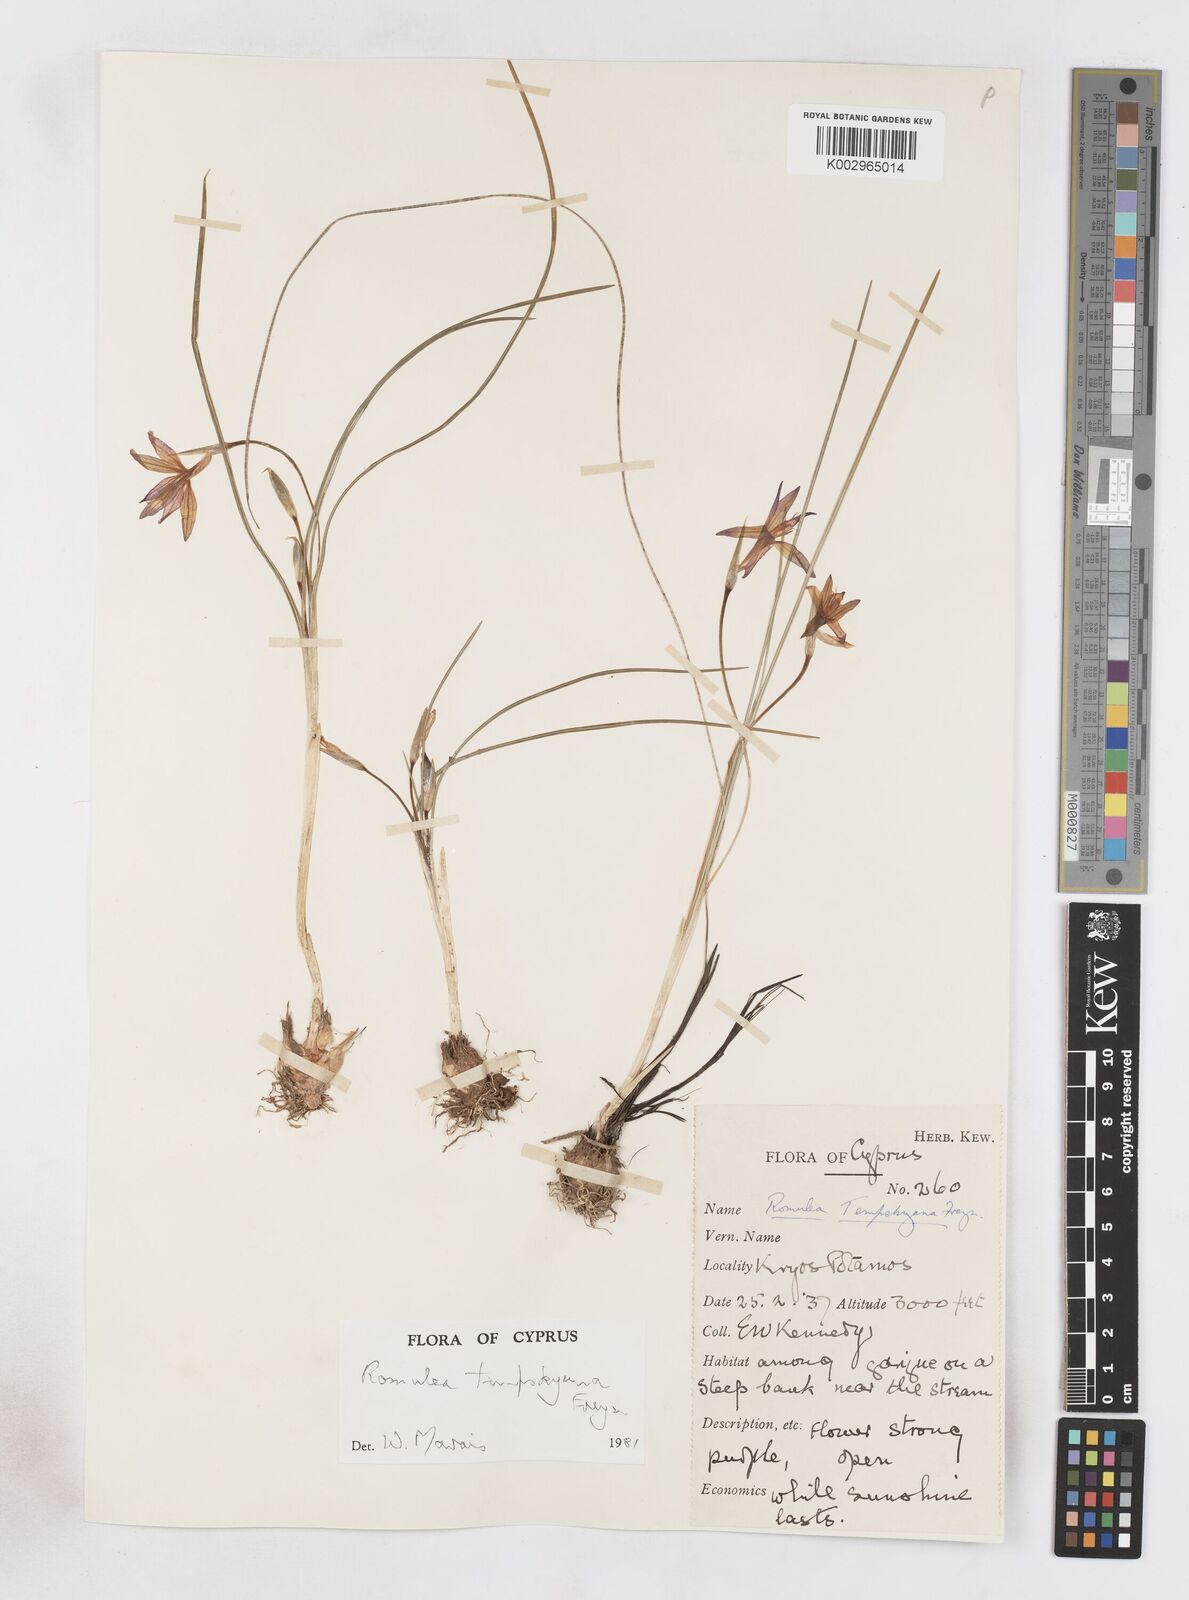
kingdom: Plantae
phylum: Tracheophyta
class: Liliopsida
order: Asparagales
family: Iridaceae
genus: Romulea
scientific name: Romulea tempskyana
